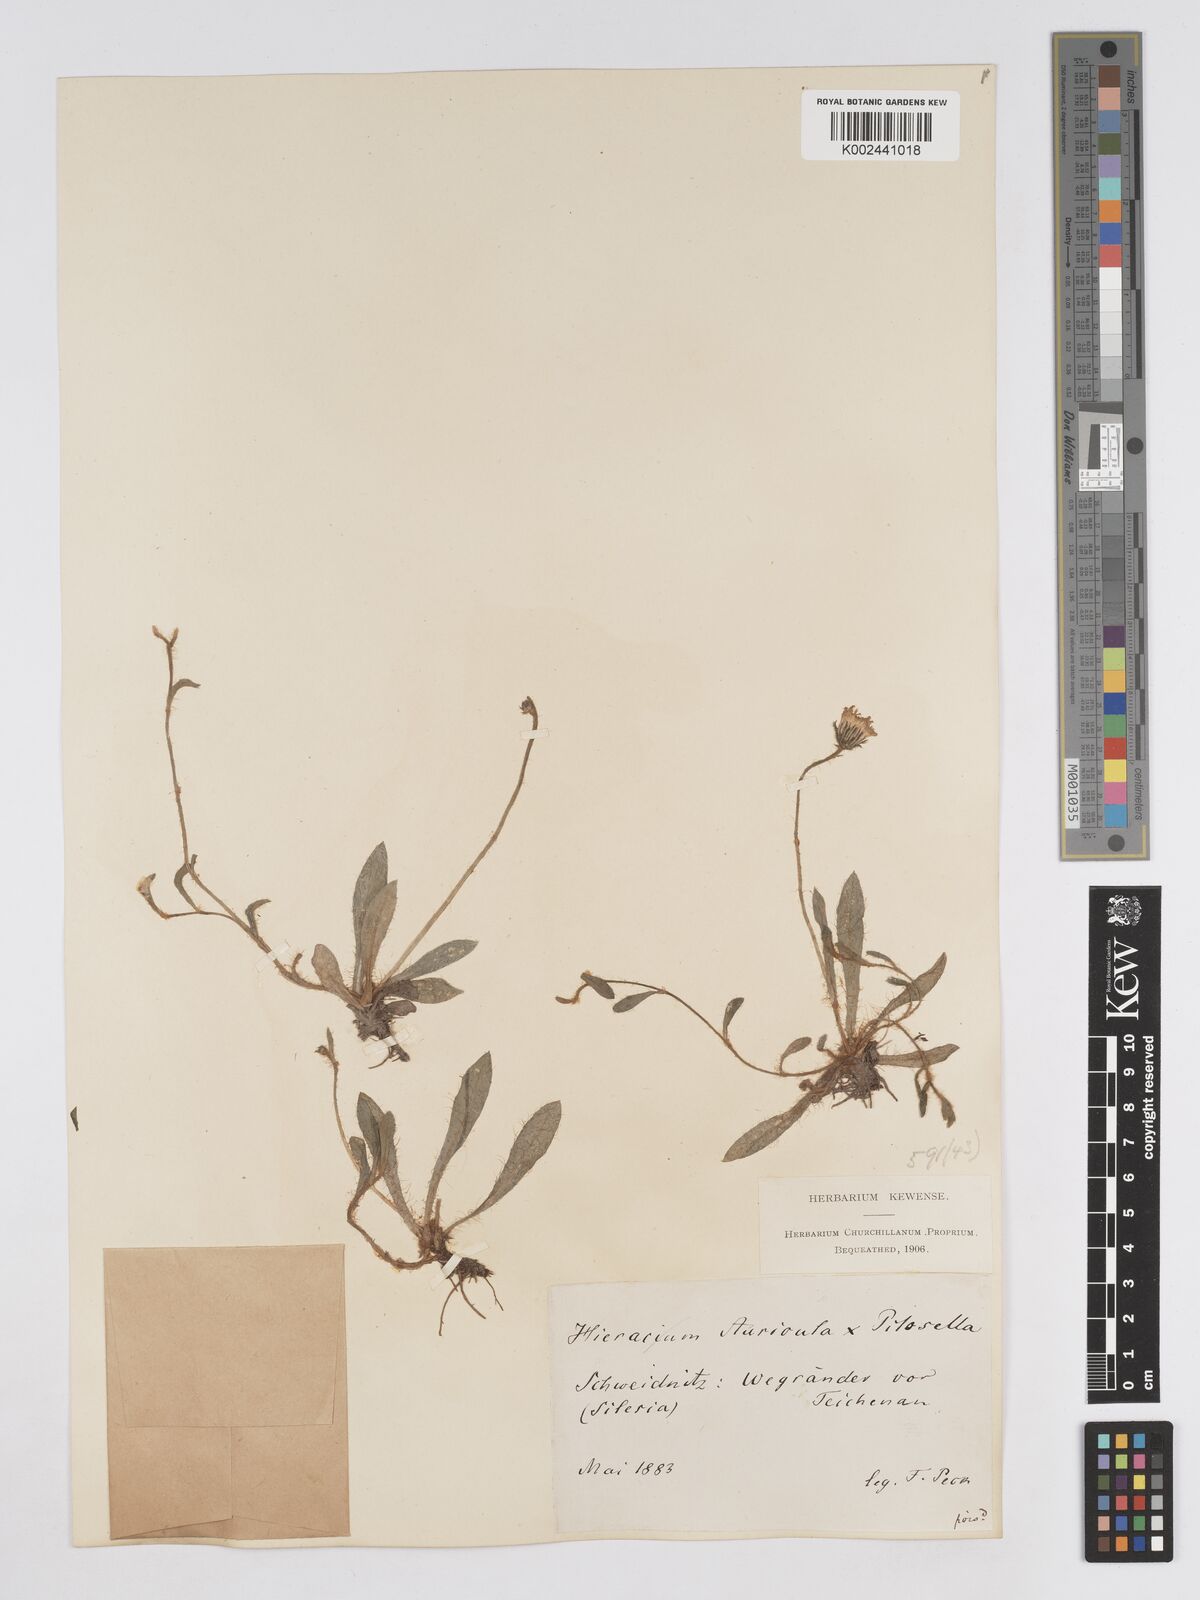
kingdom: Plantae
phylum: Tracheophyta
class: Magnoliopsida
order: Asterales
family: Asteraceae
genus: Pilosella
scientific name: Pilosella schultesii
